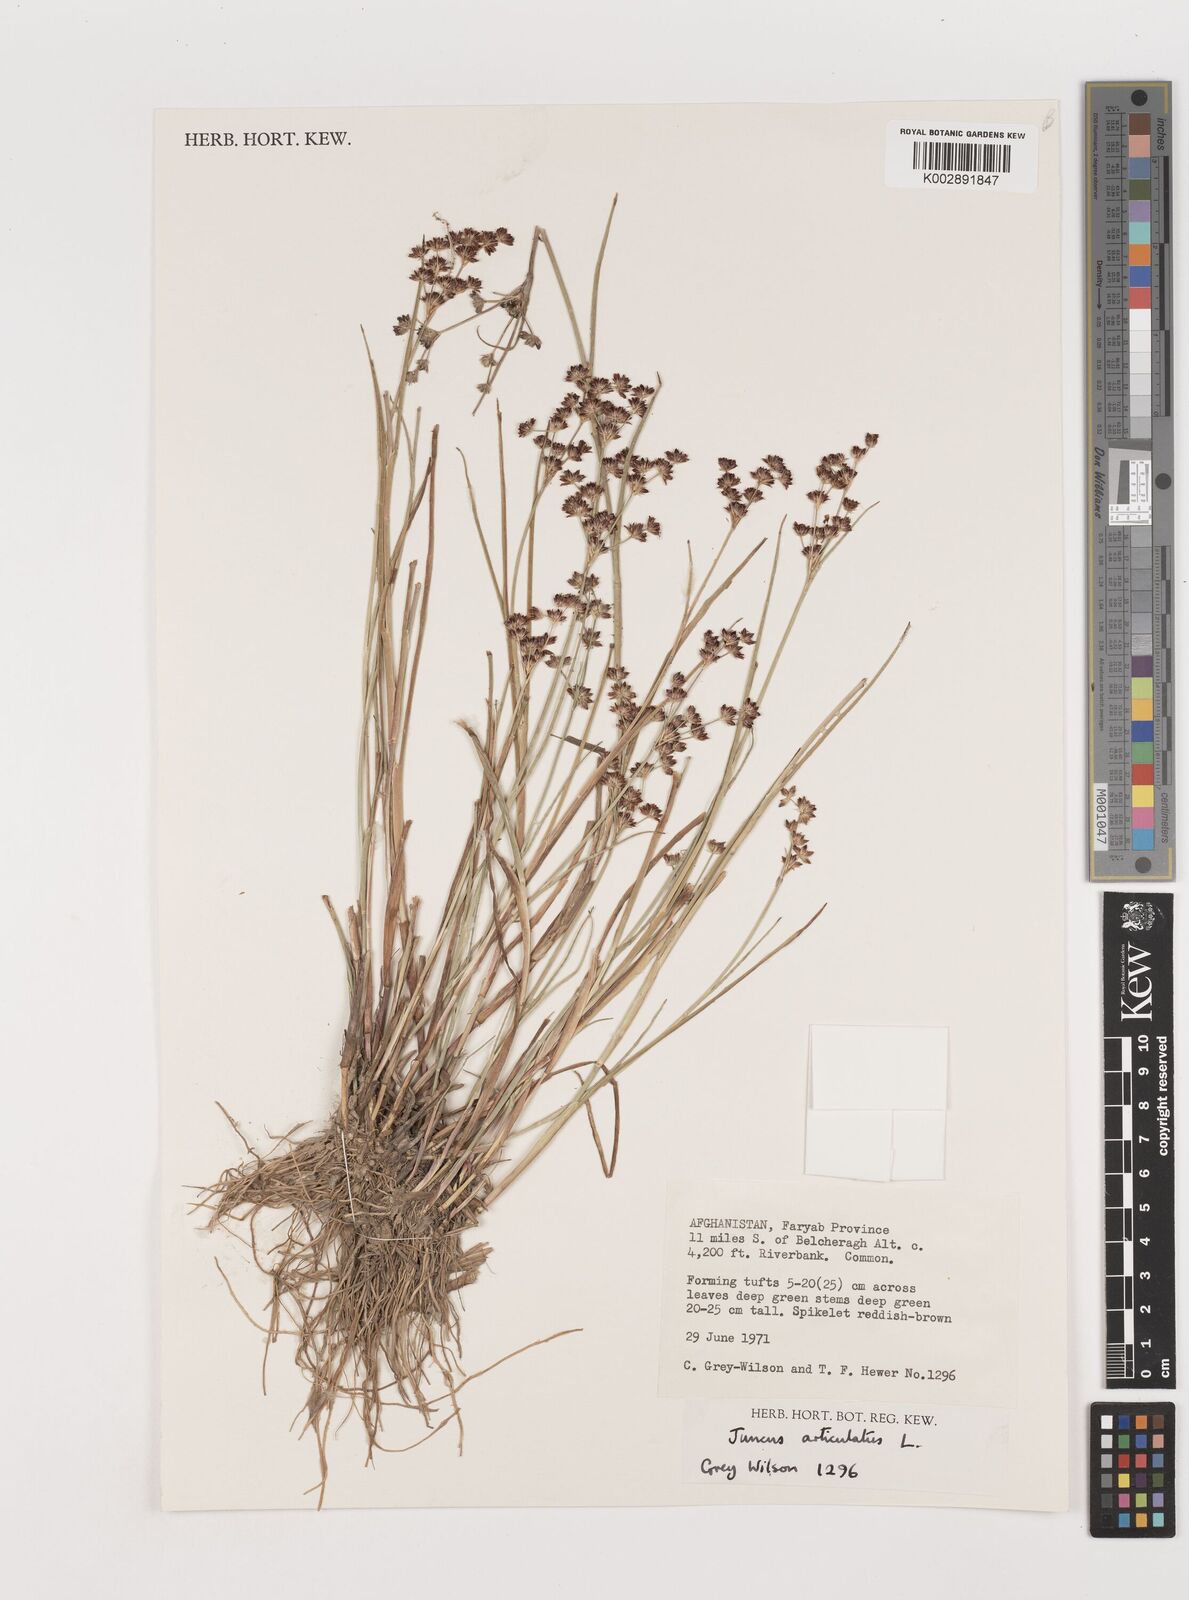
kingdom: Plantae
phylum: Tracheophyta
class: Liliopsida
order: Poales
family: Juncaceae
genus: Juncus
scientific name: Juncus articulatus
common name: Jointed rush
